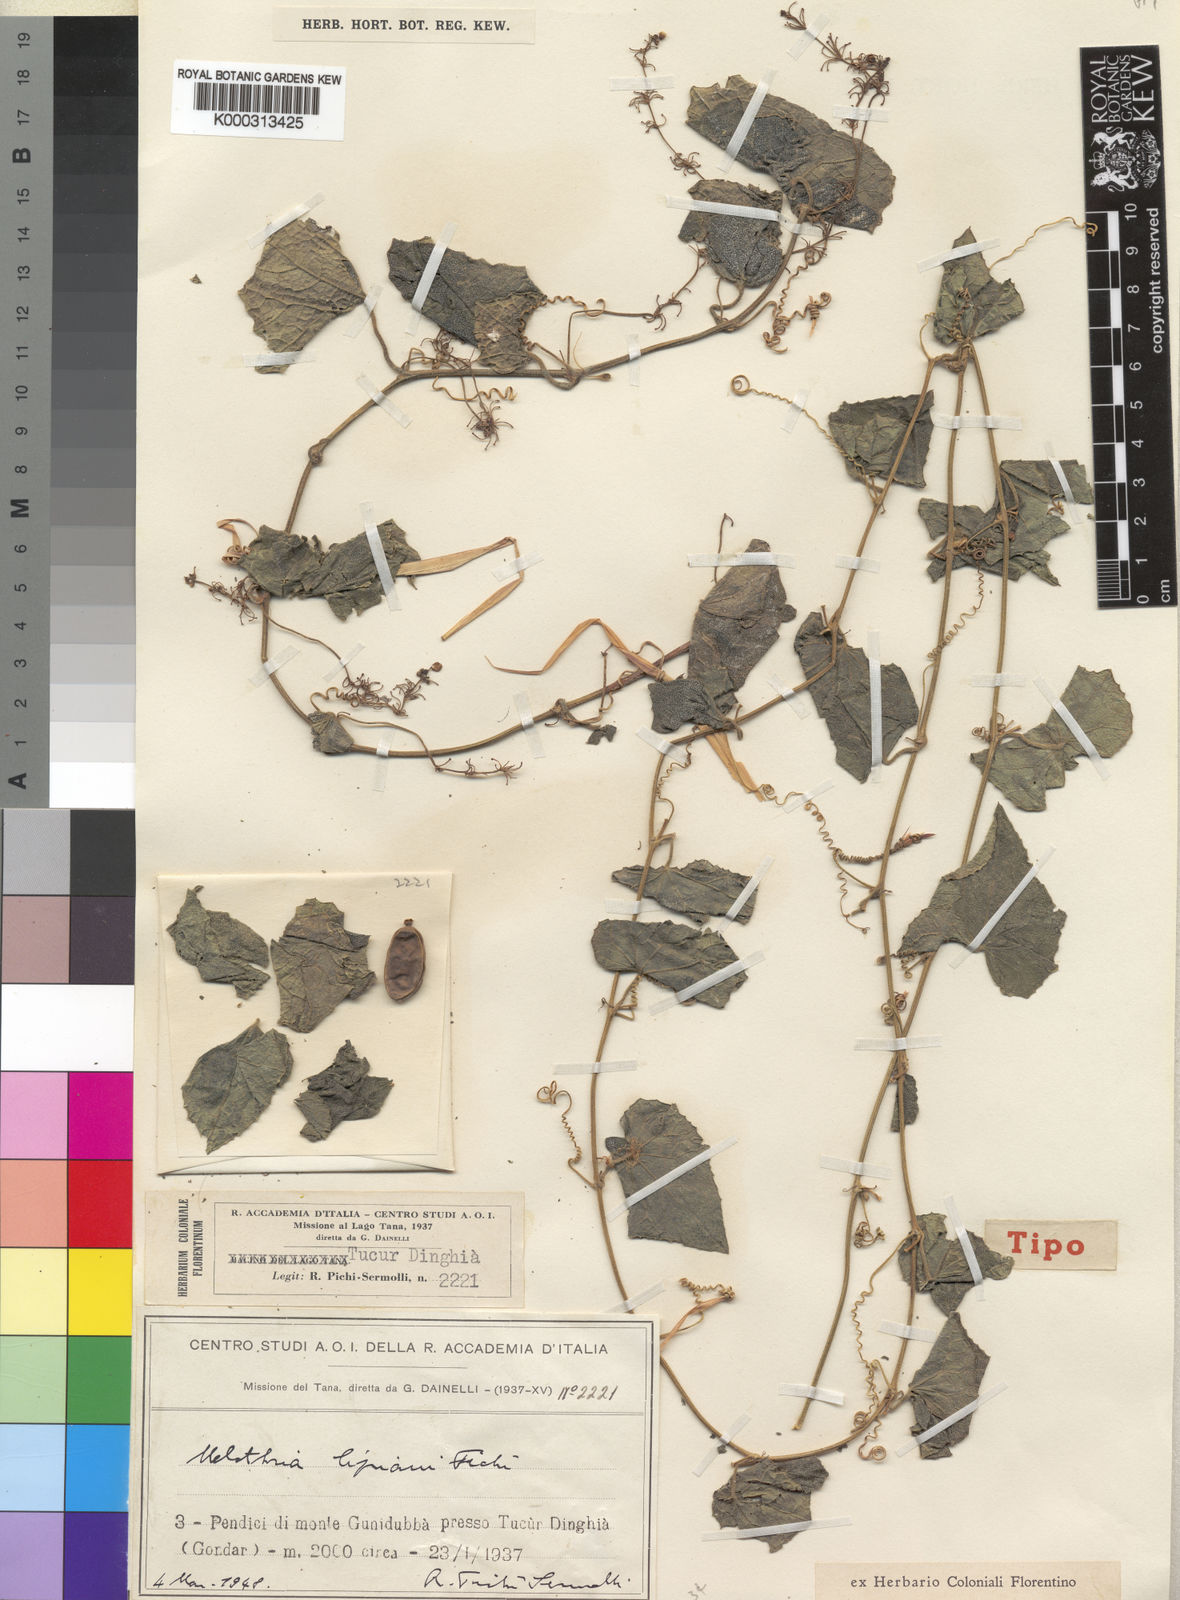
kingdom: Plantae
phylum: Tracheophyta
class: Magnoliopsida
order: Cucurbitales
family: Cucurbitaceae
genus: Zehneria
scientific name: Zehneria scabra
